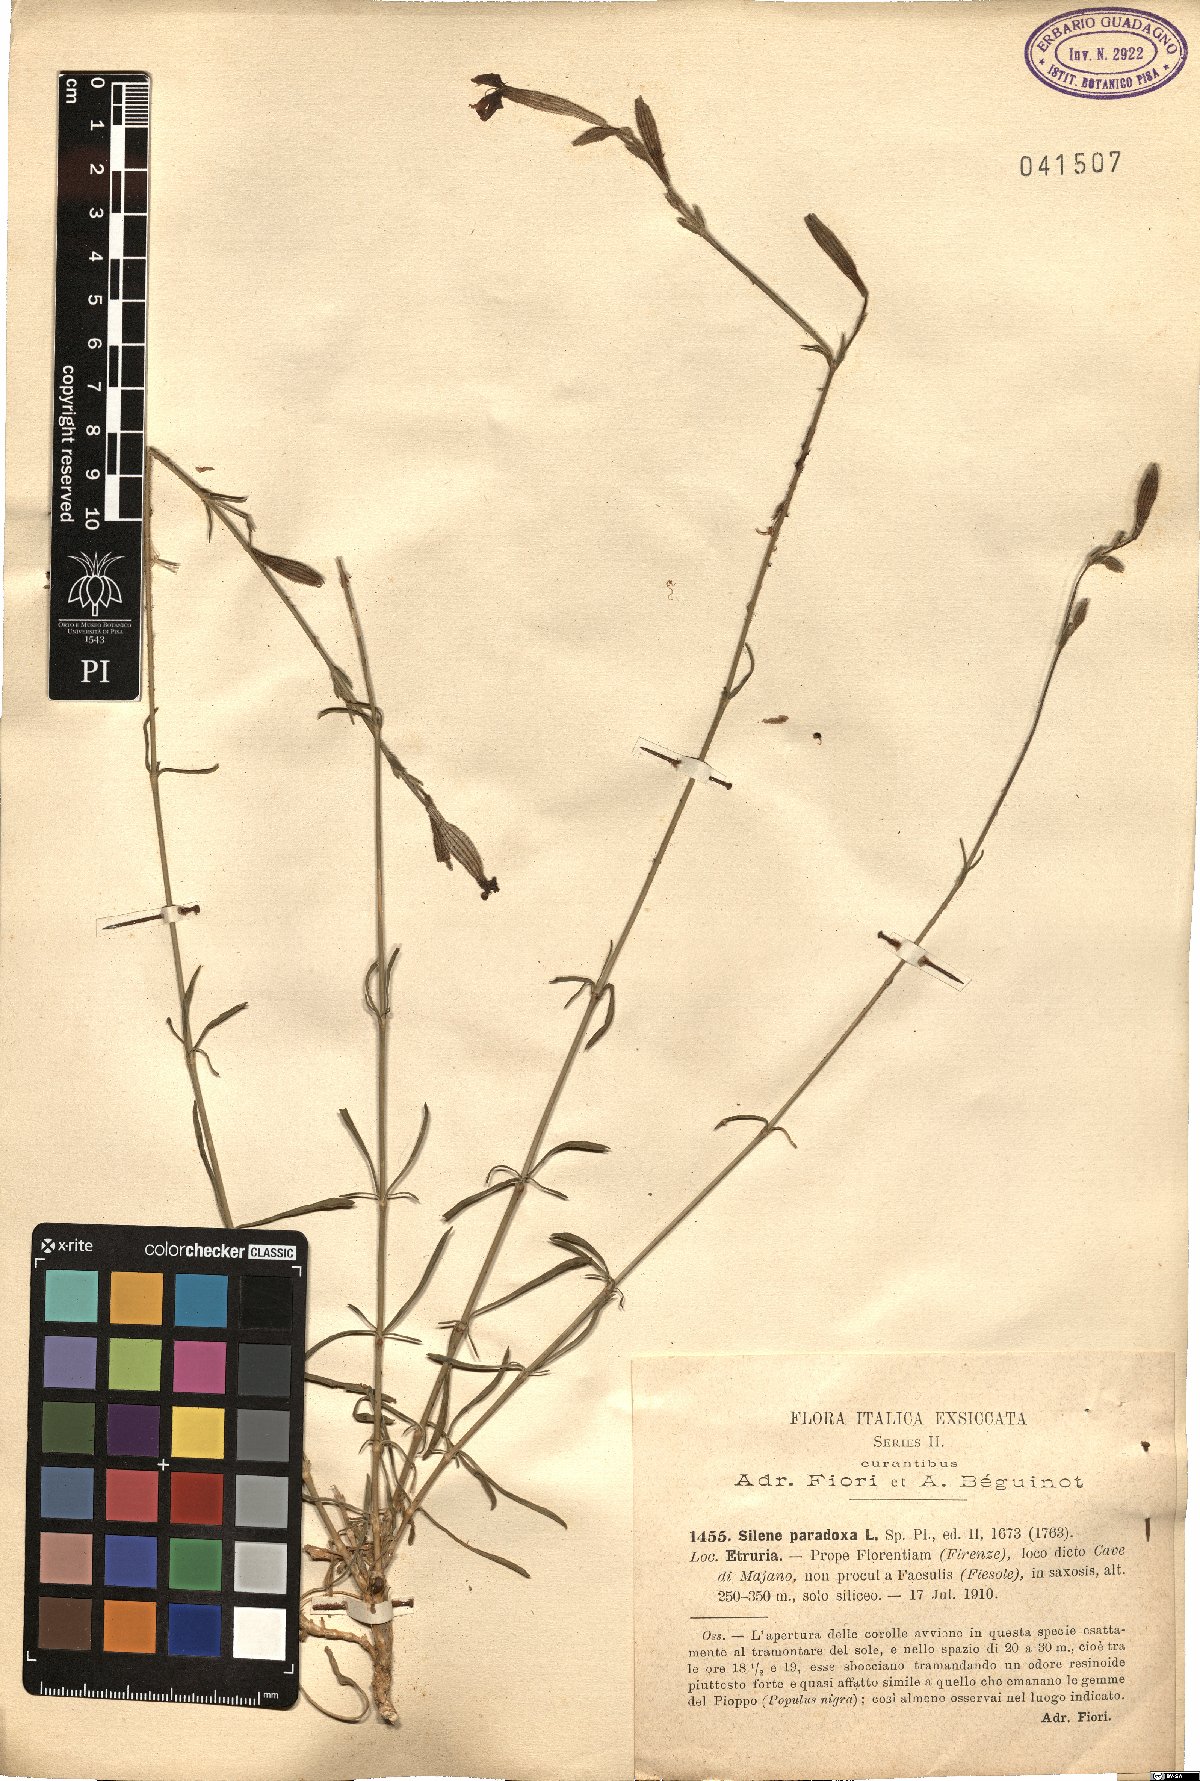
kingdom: Plantae
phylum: Tracheophyta
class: Magnoliopsida
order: Caryophyllales
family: Caryophyllaceae
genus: Silene
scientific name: Silene paradoxa
